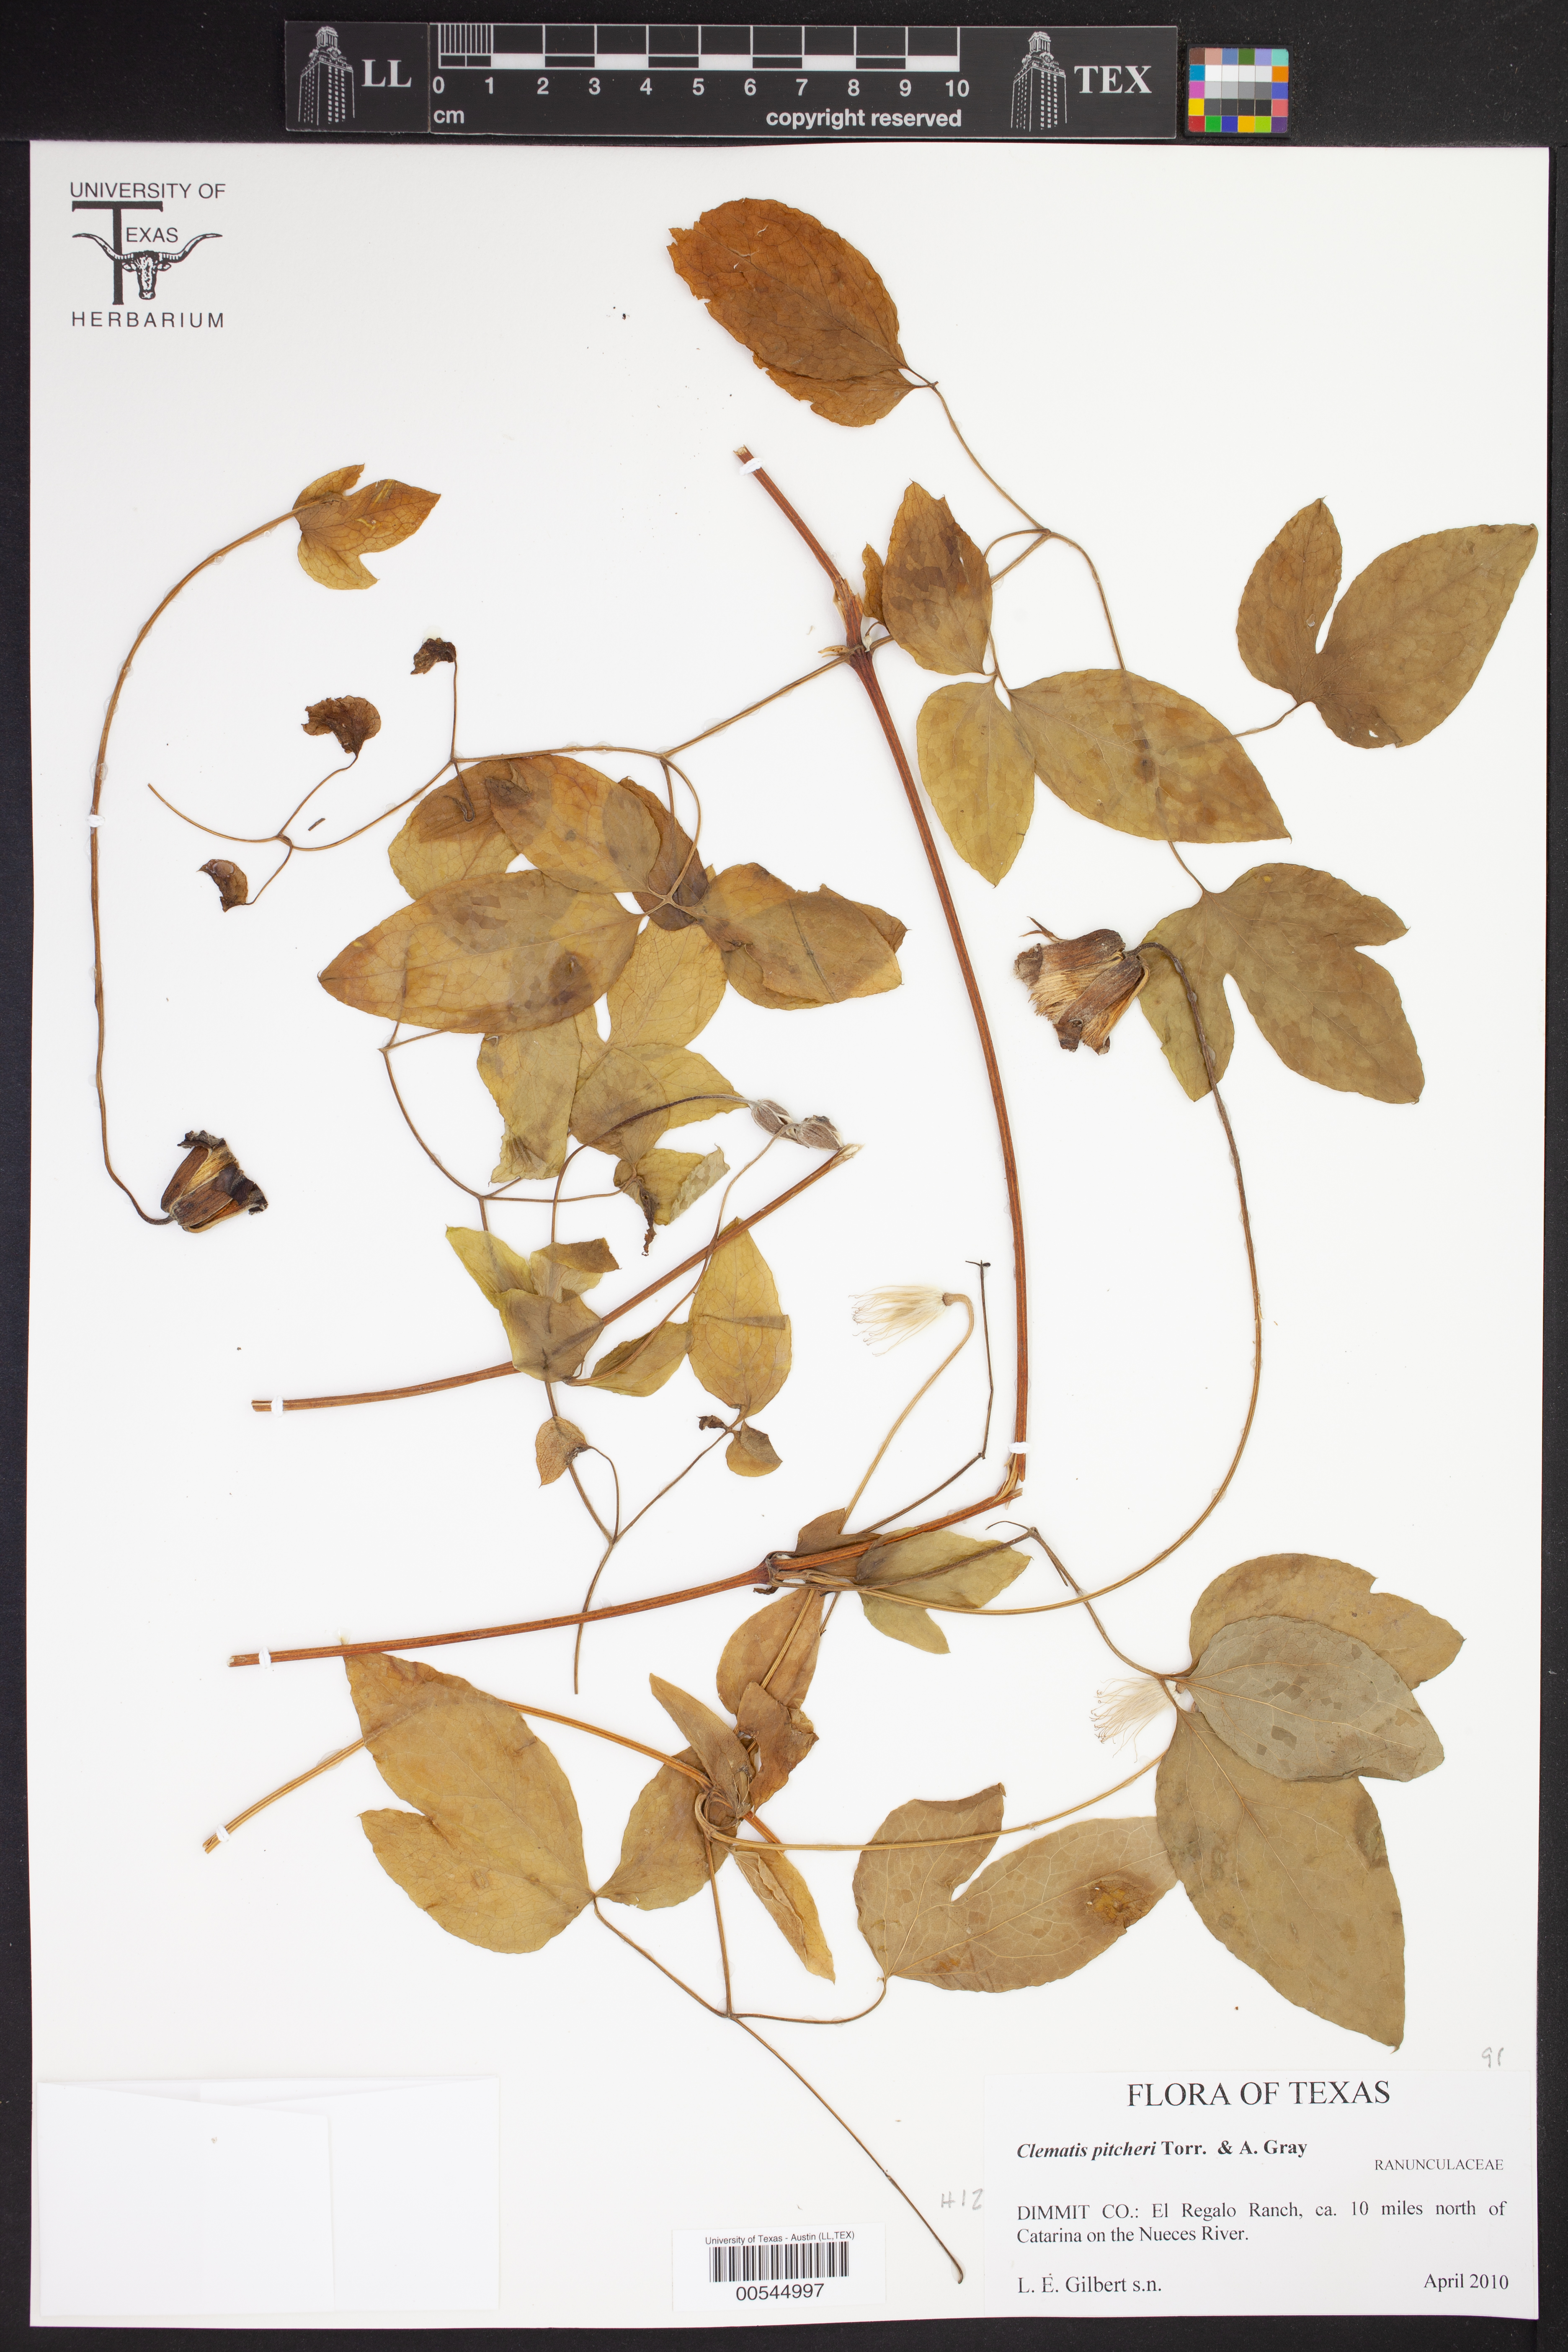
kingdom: Plantae
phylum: Tracheophyta
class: Magnoliopsida
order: Ranunculales
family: Ranunculaceae
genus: Clematis
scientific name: Clematis pitcheri
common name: Bellflower clematis
